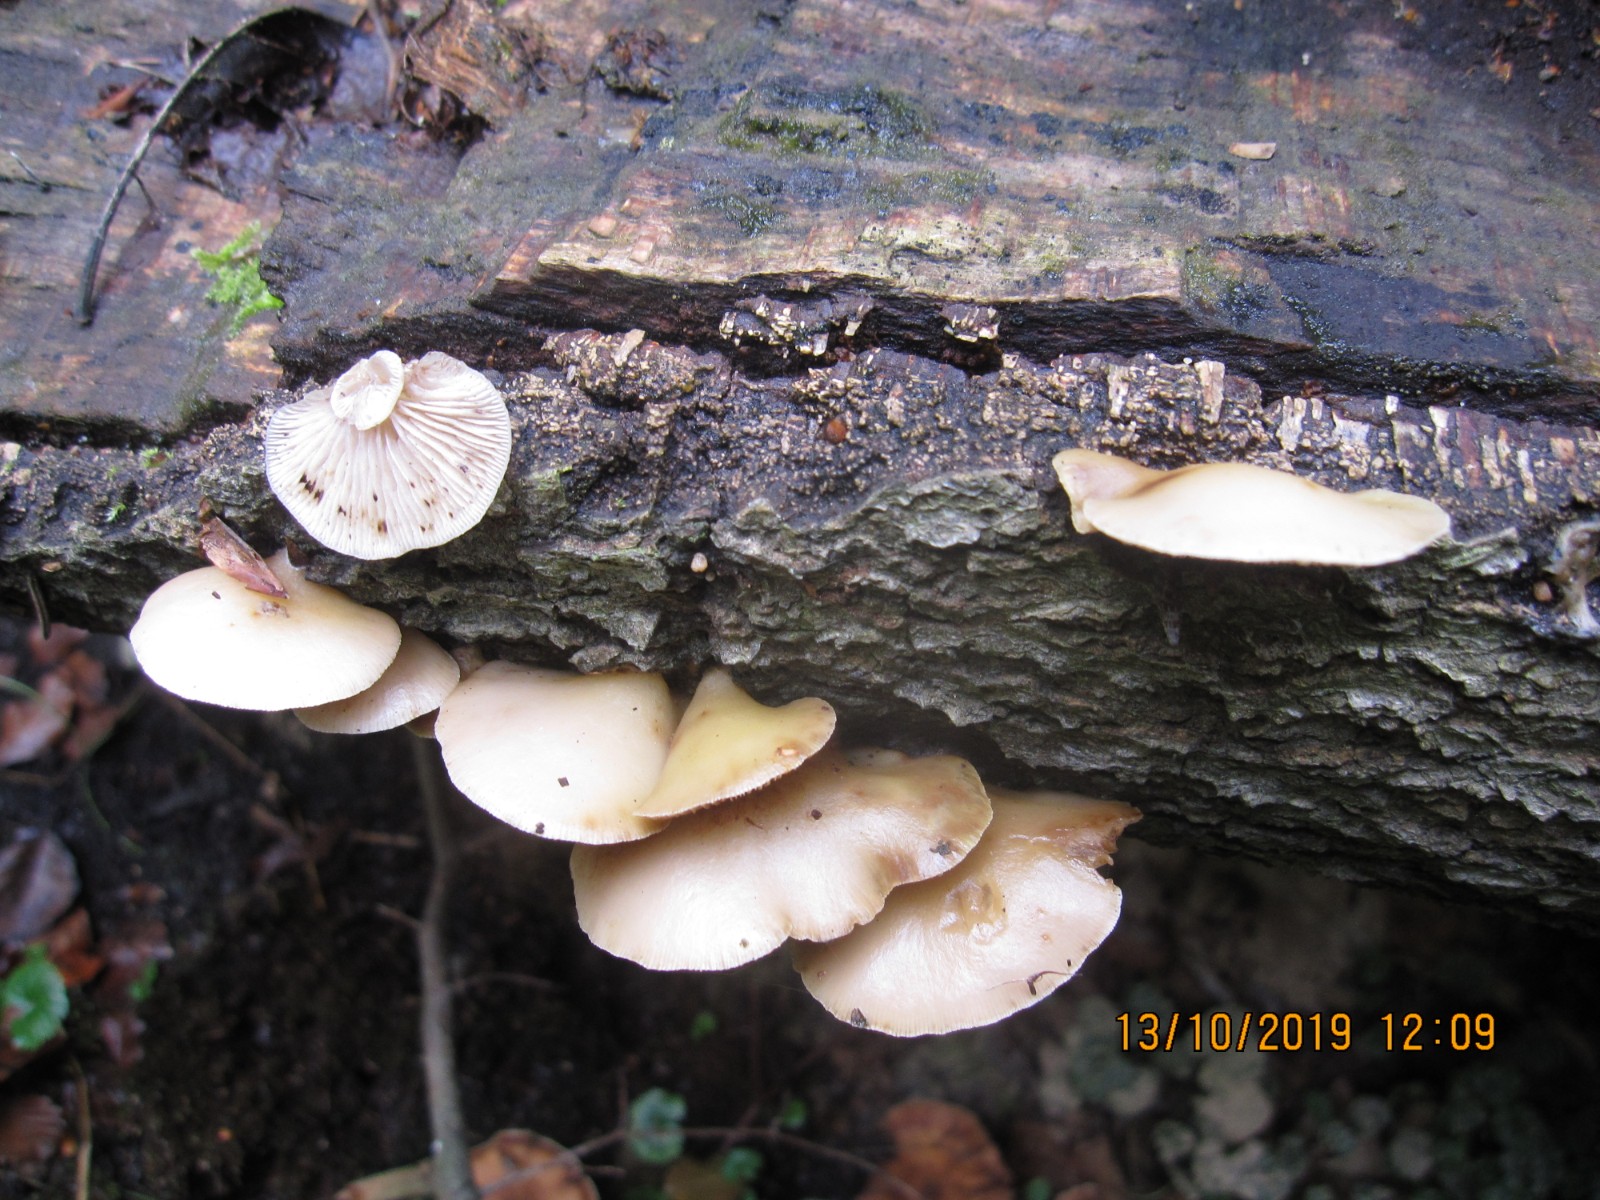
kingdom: Fungi
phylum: Basidiomycota
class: Agaricomycetes
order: Agaricales
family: Crepidotaceae
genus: Crepidotus
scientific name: Crepidotus mollis
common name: blød muslingesvamp
